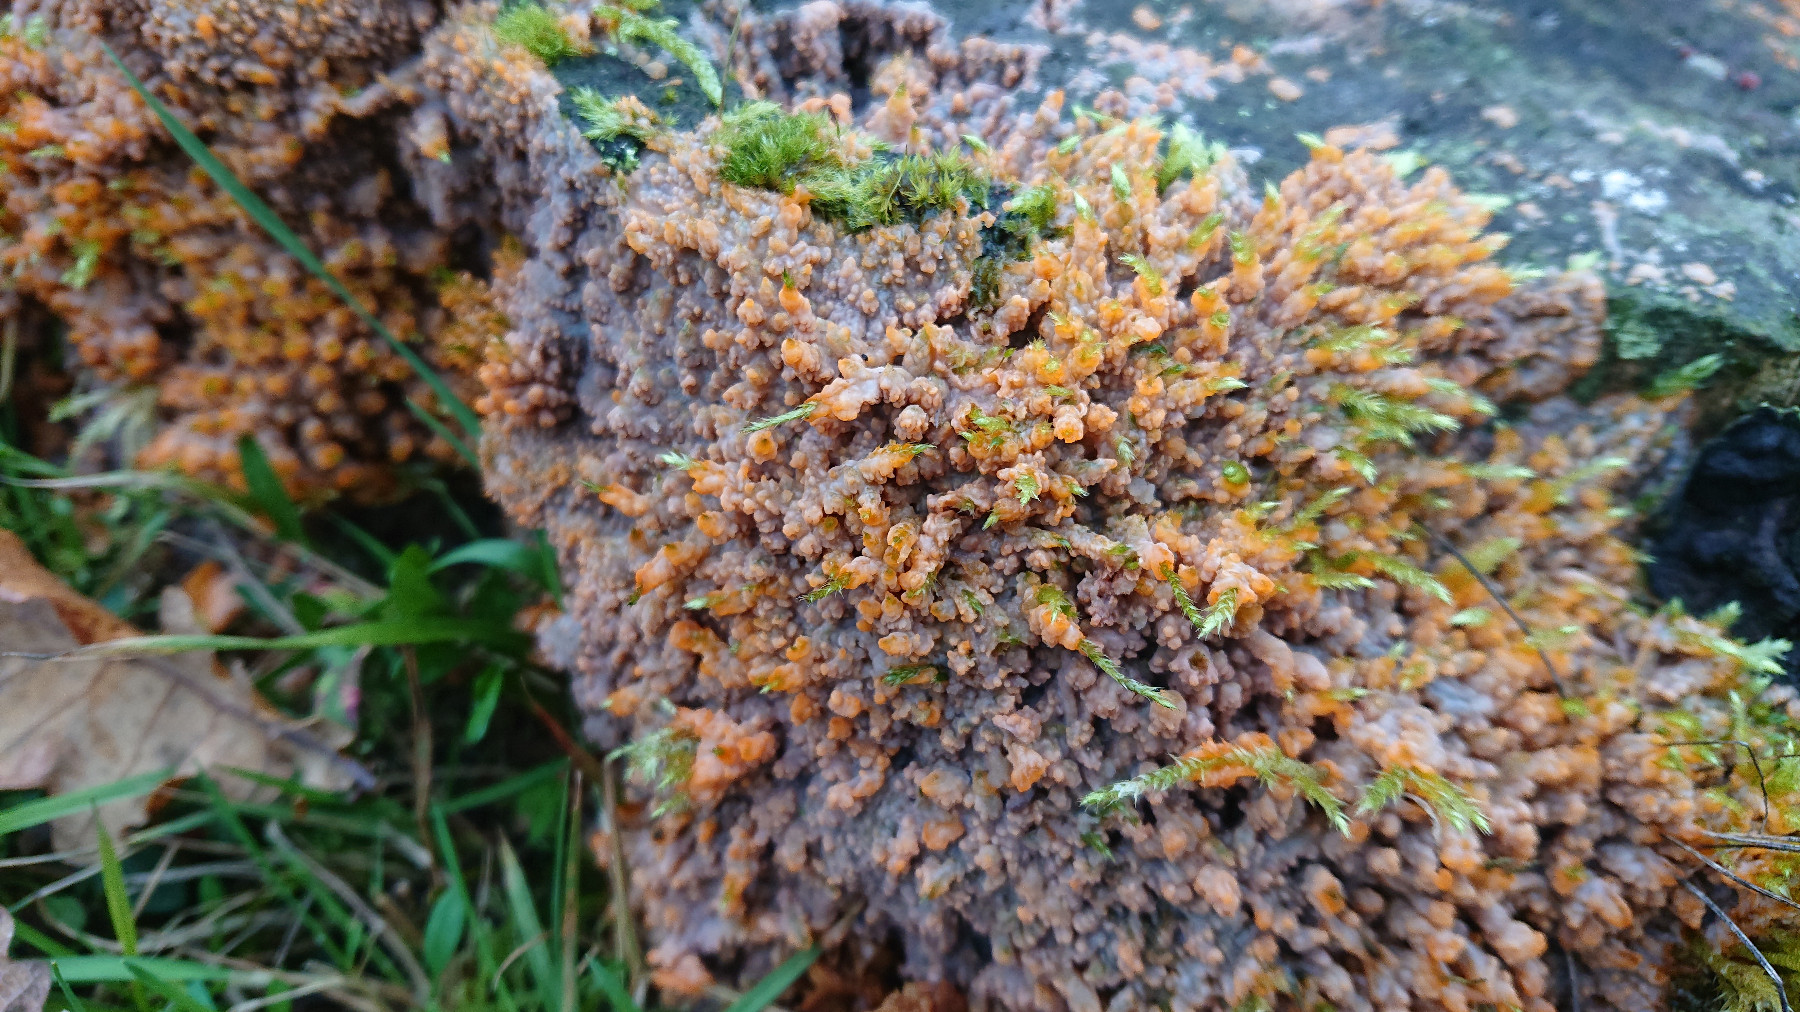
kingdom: Fungi
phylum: Basidiomycota
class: Agaricomycetes
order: Polyporales
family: Meruliaceae
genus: Phlebia
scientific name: Phlebia radiata
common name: stråle-åresvamp
